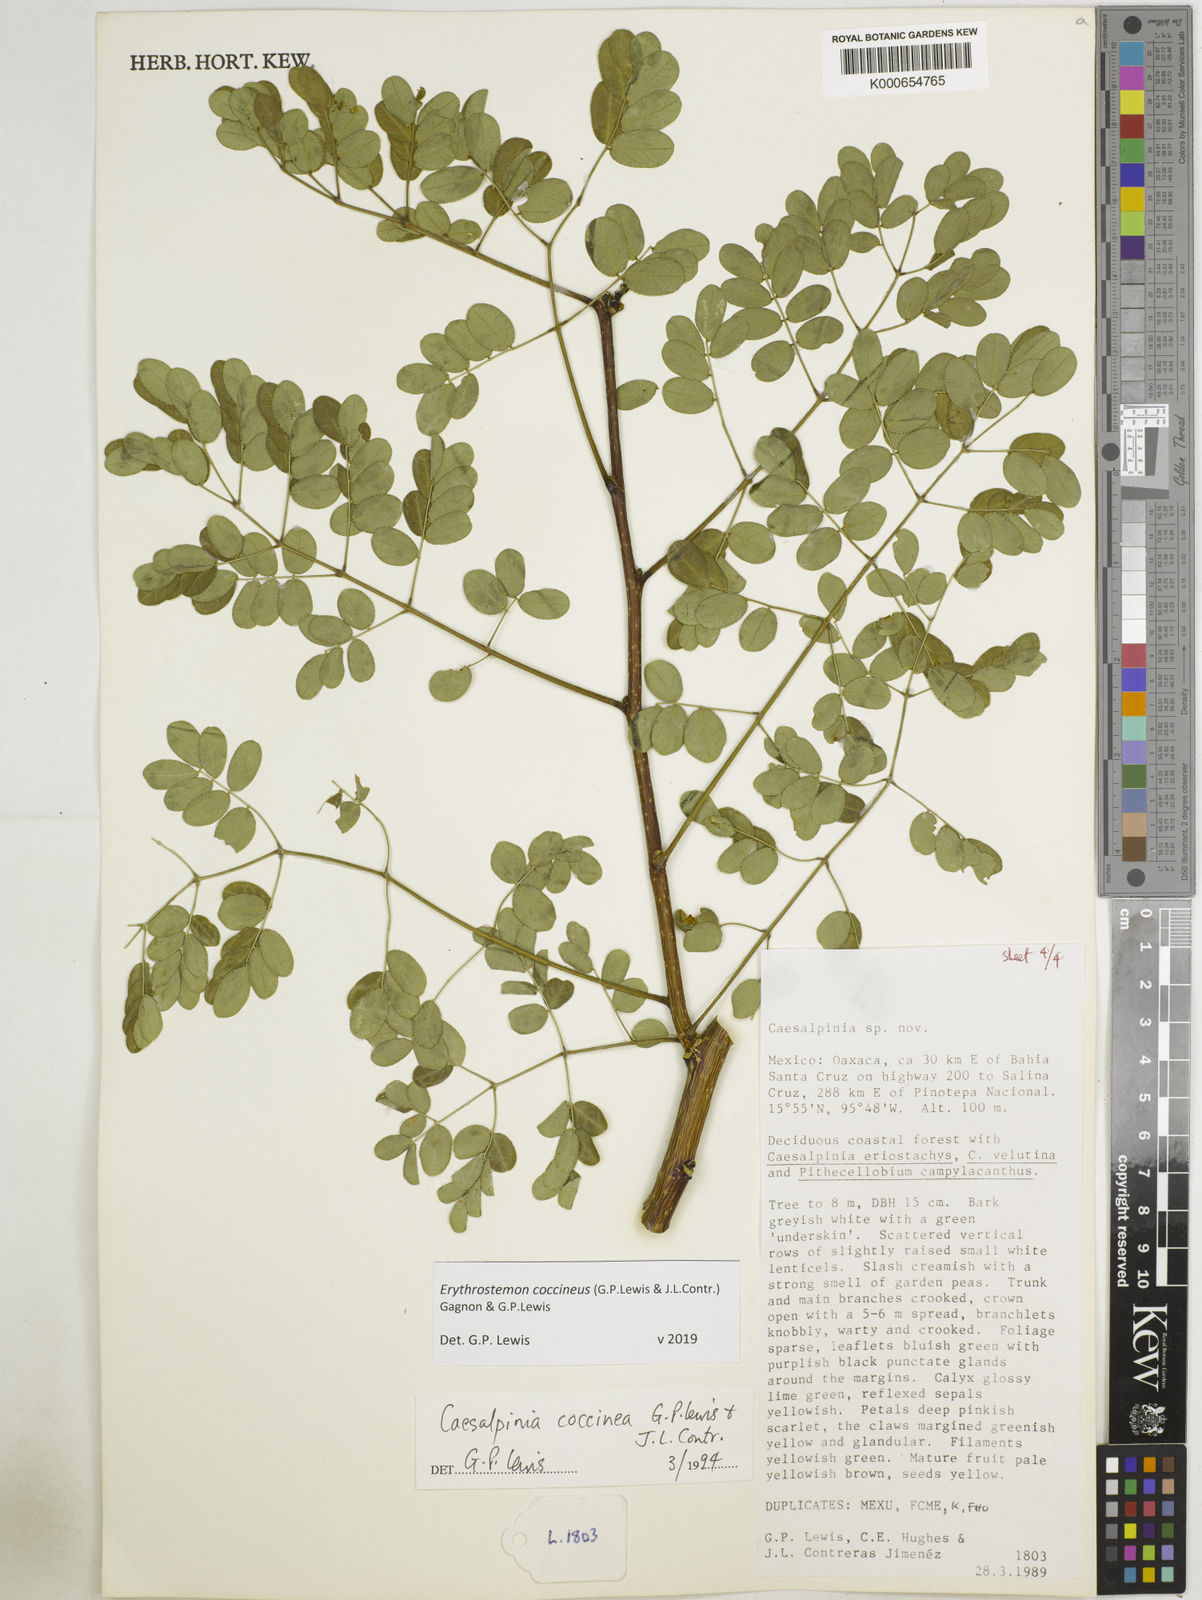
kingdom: Plantae
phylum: Tracheophyta
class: Magnoliopsida
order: Fabales
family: Fabaceae
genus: Erythrostemon
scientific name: Erythrostemon coccineus
